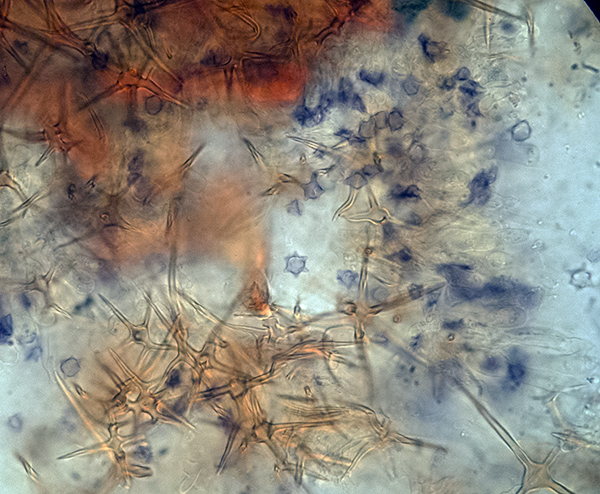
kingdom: Fungi
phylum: Basidiomycota
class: Agaricomycetes
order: Russulales
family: Peniophoraceae
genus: Asterostroma
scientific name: Asterostroma medium
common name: hjortebrun stjerneskind
